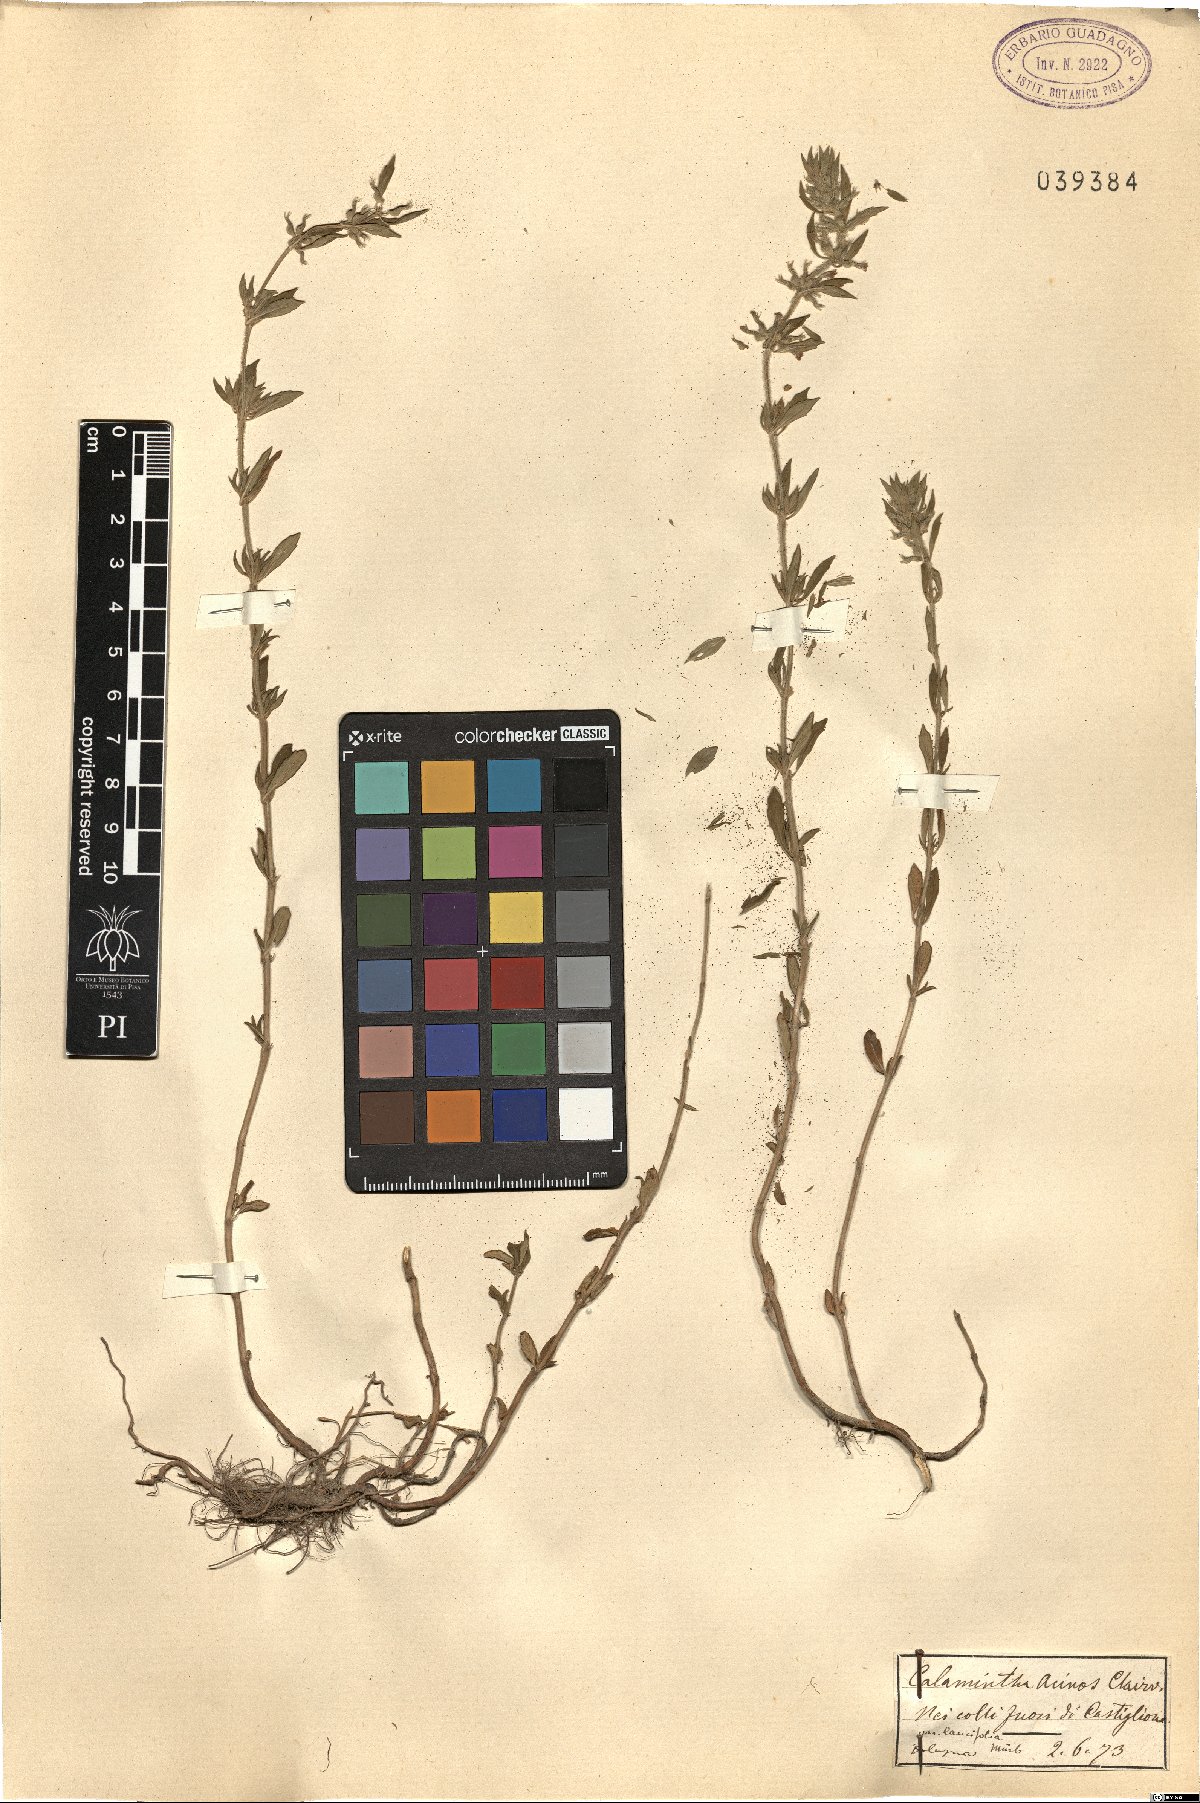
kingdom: Plantae
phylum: Tracheophyta
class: Magnoliopsida
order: Lamiales
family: Lamiaceae
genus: Clinopodium
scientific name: Clinopodium acinos
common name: Basil thyme
